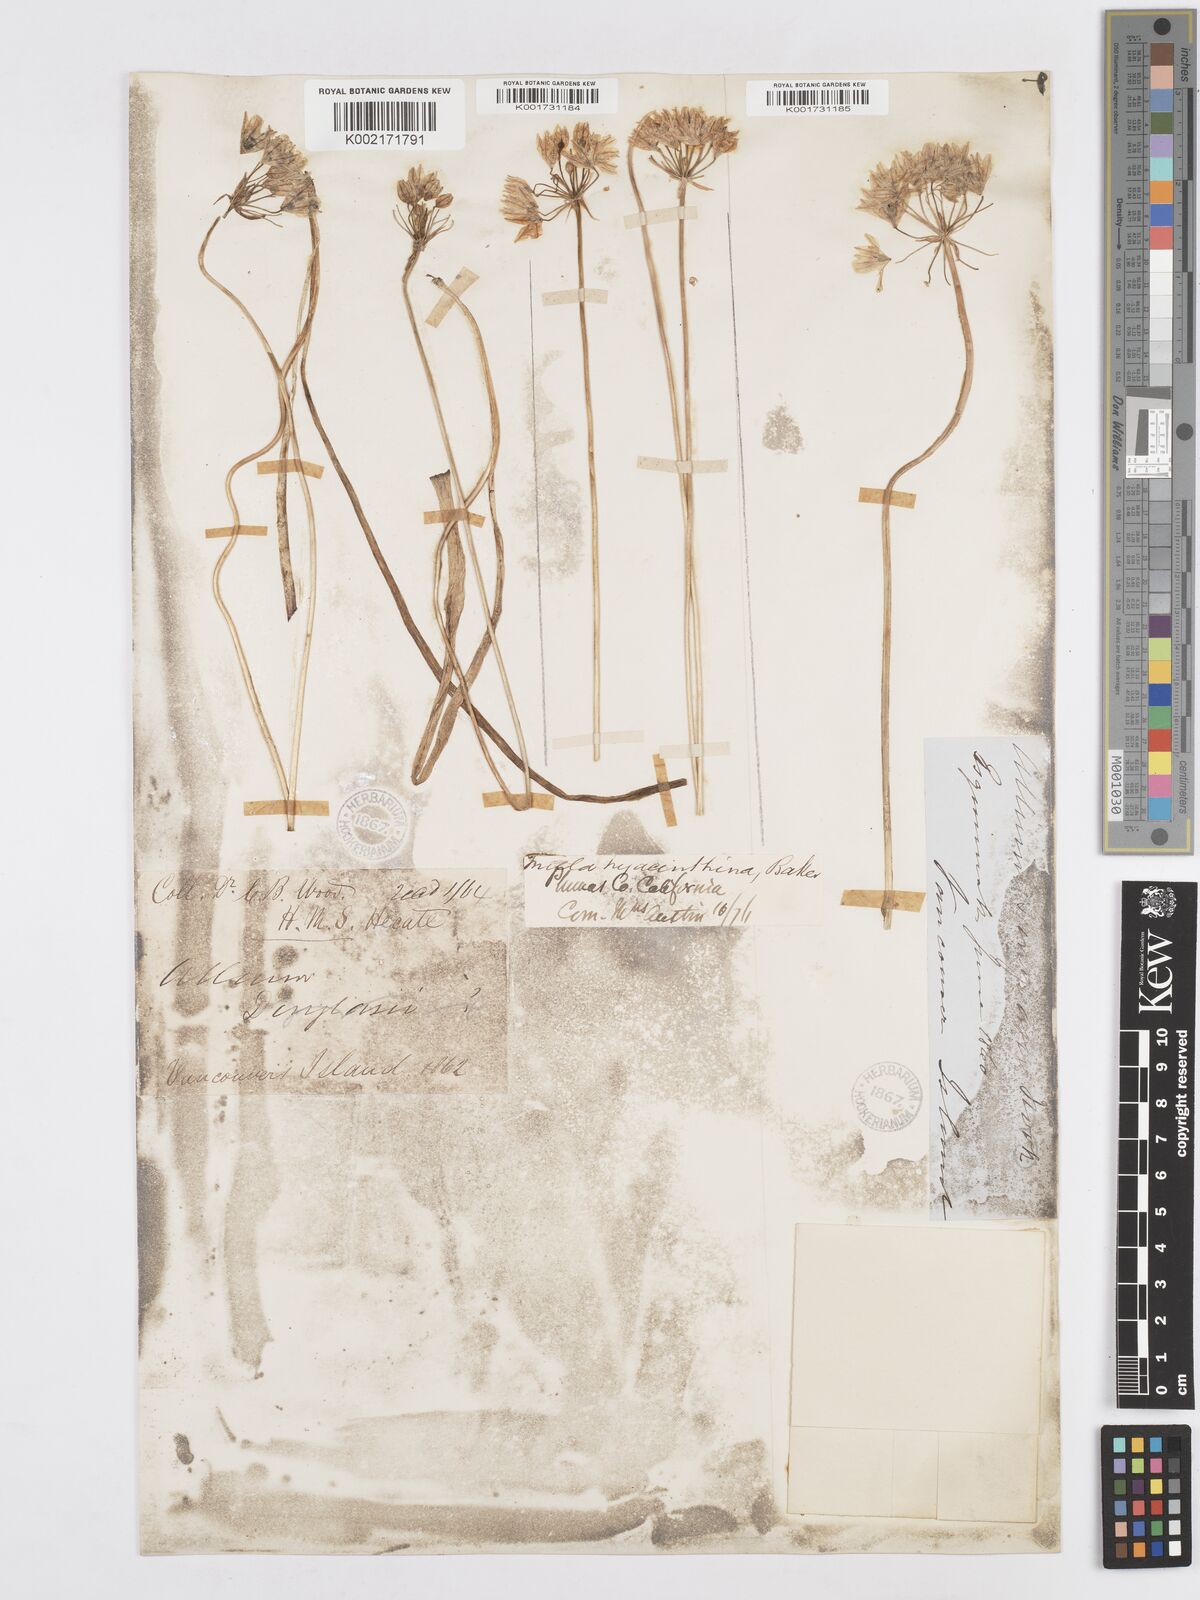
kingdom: Plantae
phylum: Tracheophyta
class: Liliopsida
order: Asparagales
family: Asparagaceae
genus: Triteleia
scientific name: Triteleia hyacinthina
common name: White brodiaea
